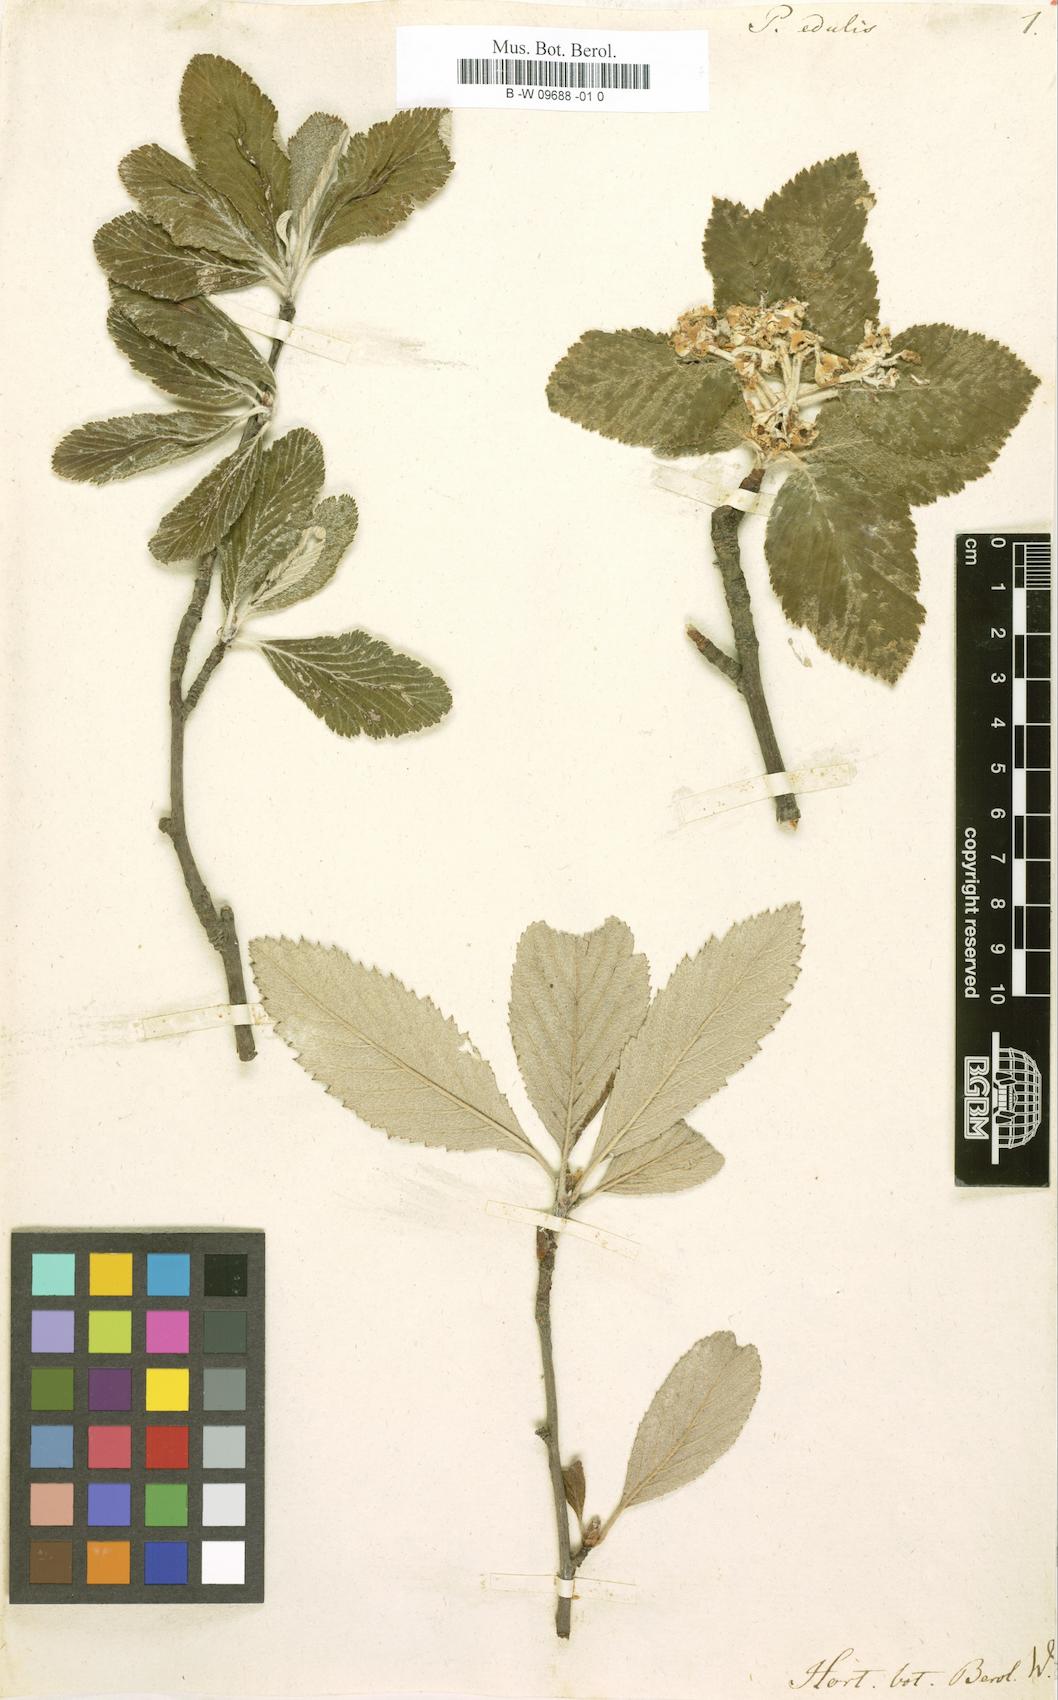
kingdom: Plantae
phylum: Tracheophyta
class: Magnoliopsida
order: Rosales
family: Rosaceae
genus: Aria
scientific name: Aria edulis
